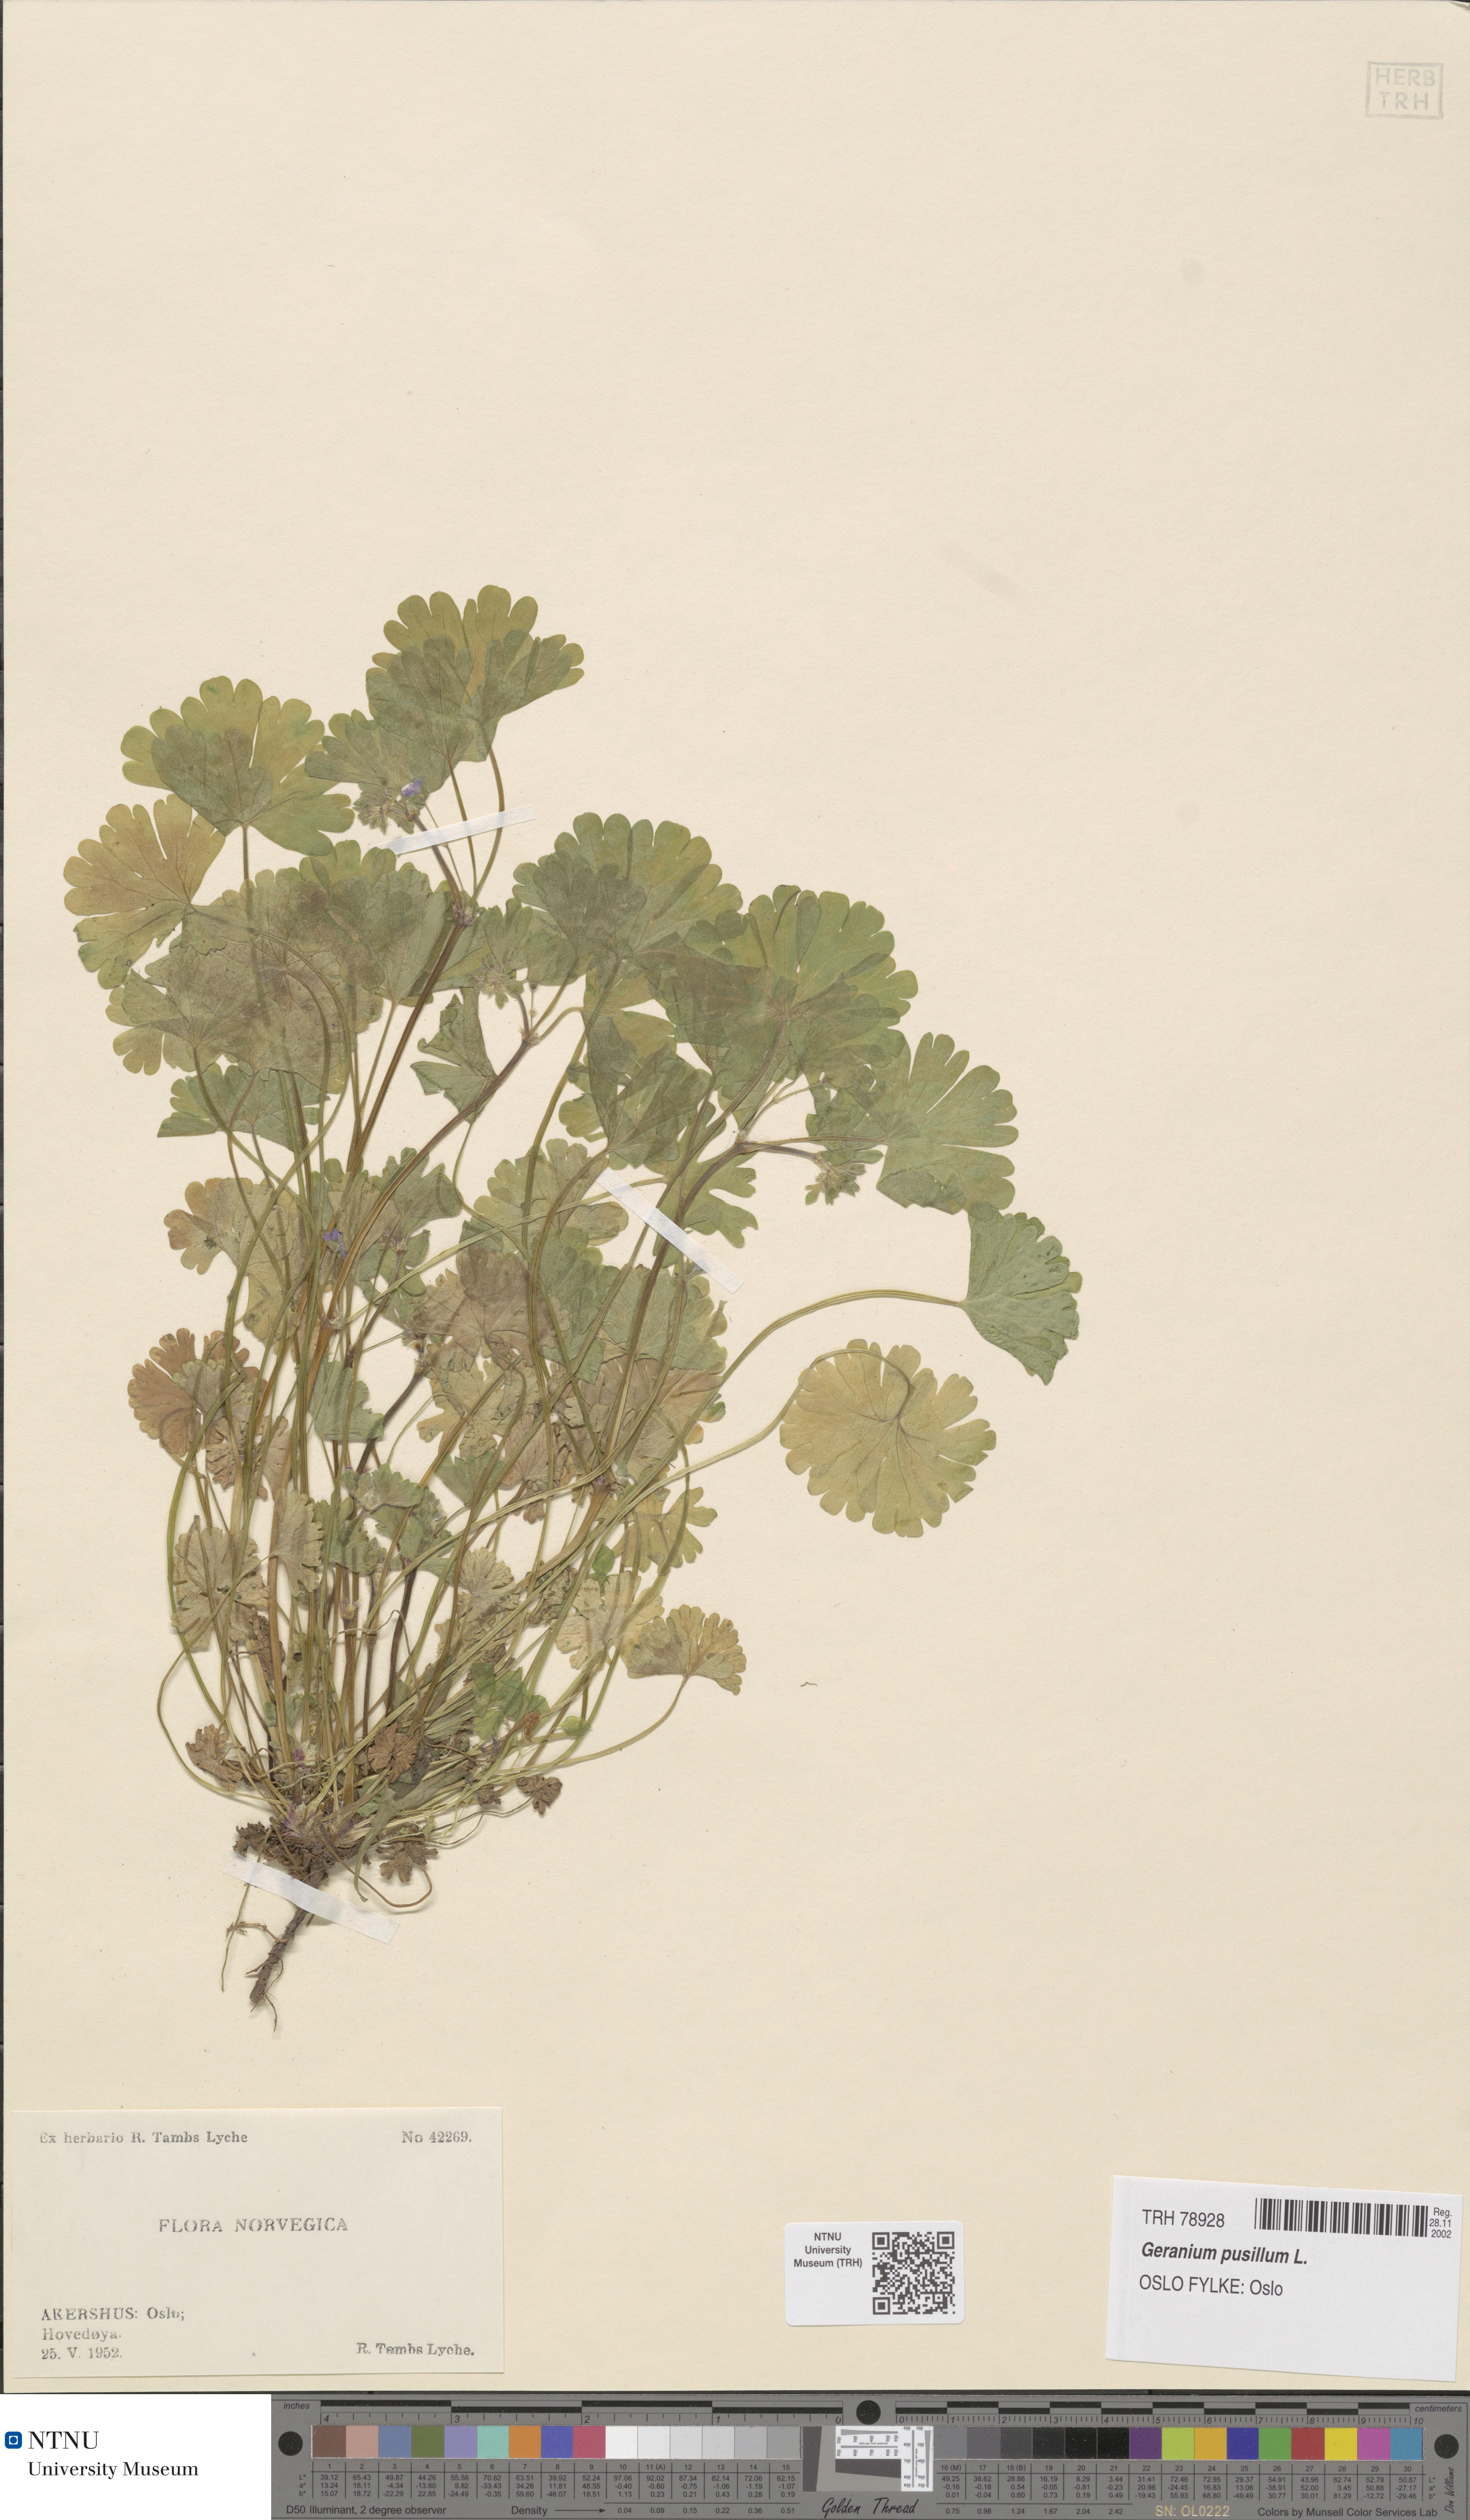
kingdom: Plantae
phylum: Tracheophyta
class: Magnoliopsida
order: Geraniales
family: Geraniaceae
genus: Geranium
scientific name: Geranium pusillum
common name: Small geranium
